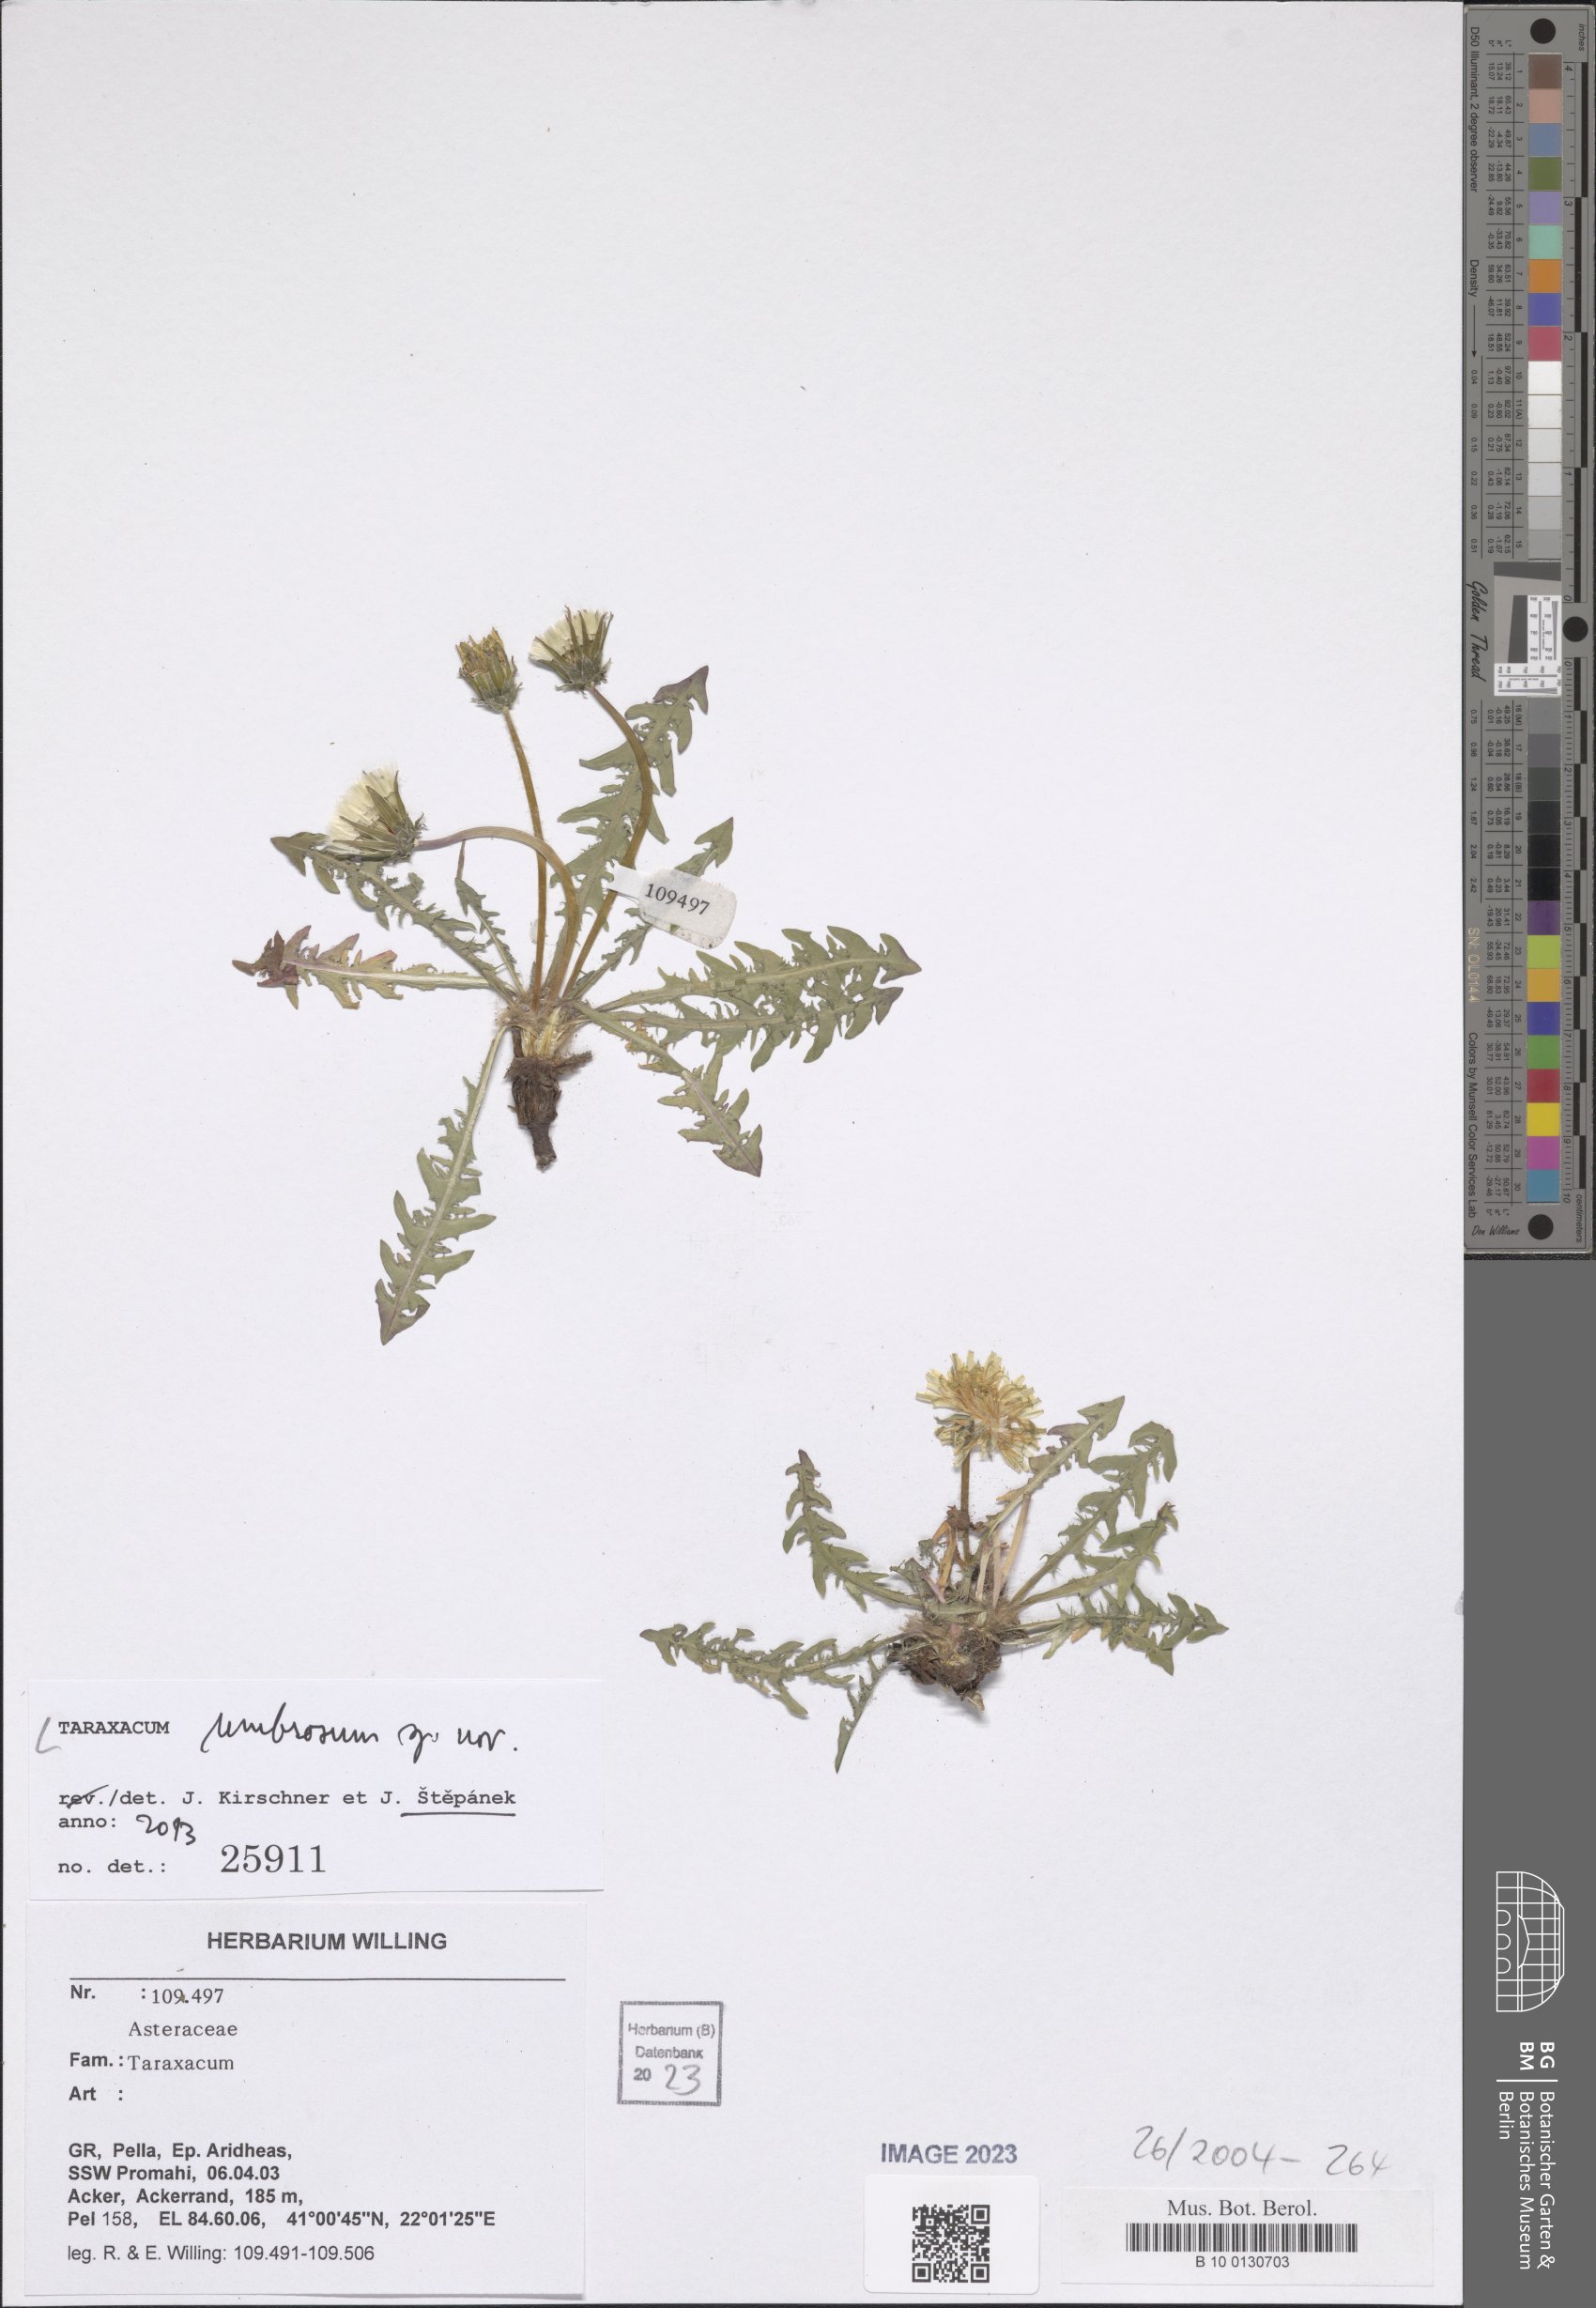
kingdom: Plantae
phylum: Tracheophyta
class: Magnoliopsida
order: Asterales
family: Asteraceae
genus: Taraxacum
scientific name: Taraxacum umbrosum
